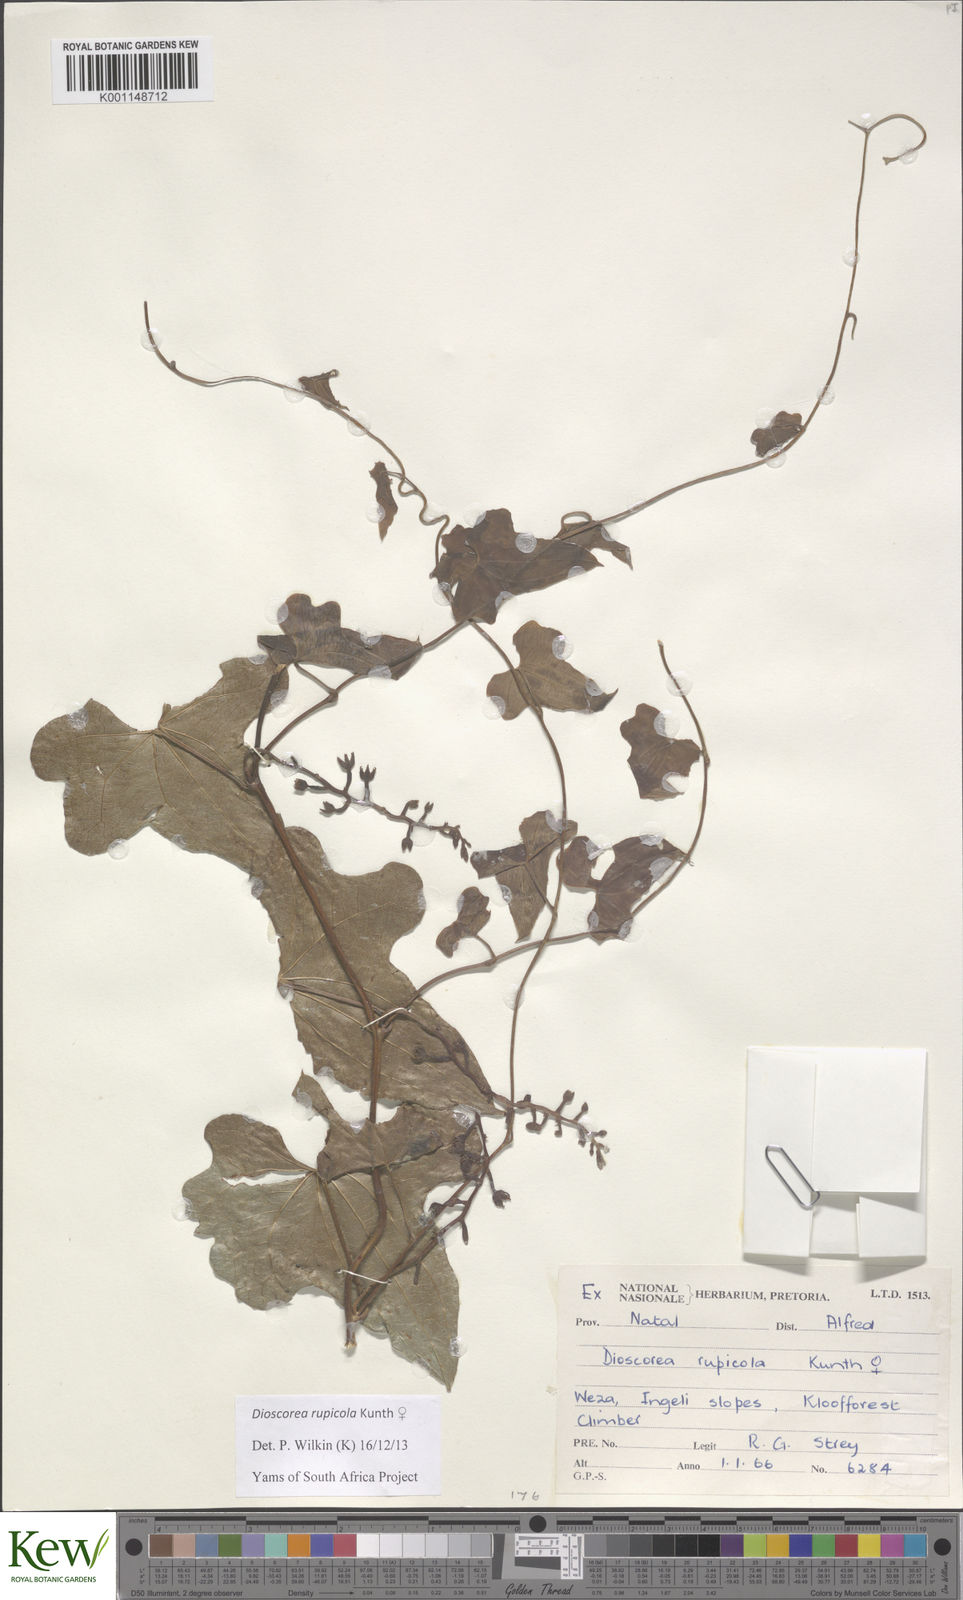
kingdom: Plantae
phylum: Tracheophyta
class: Liliopsida
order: Dioscoreales
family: Dioscoreaceae
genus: Dioscorea
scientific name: Dioscorea rupicola
